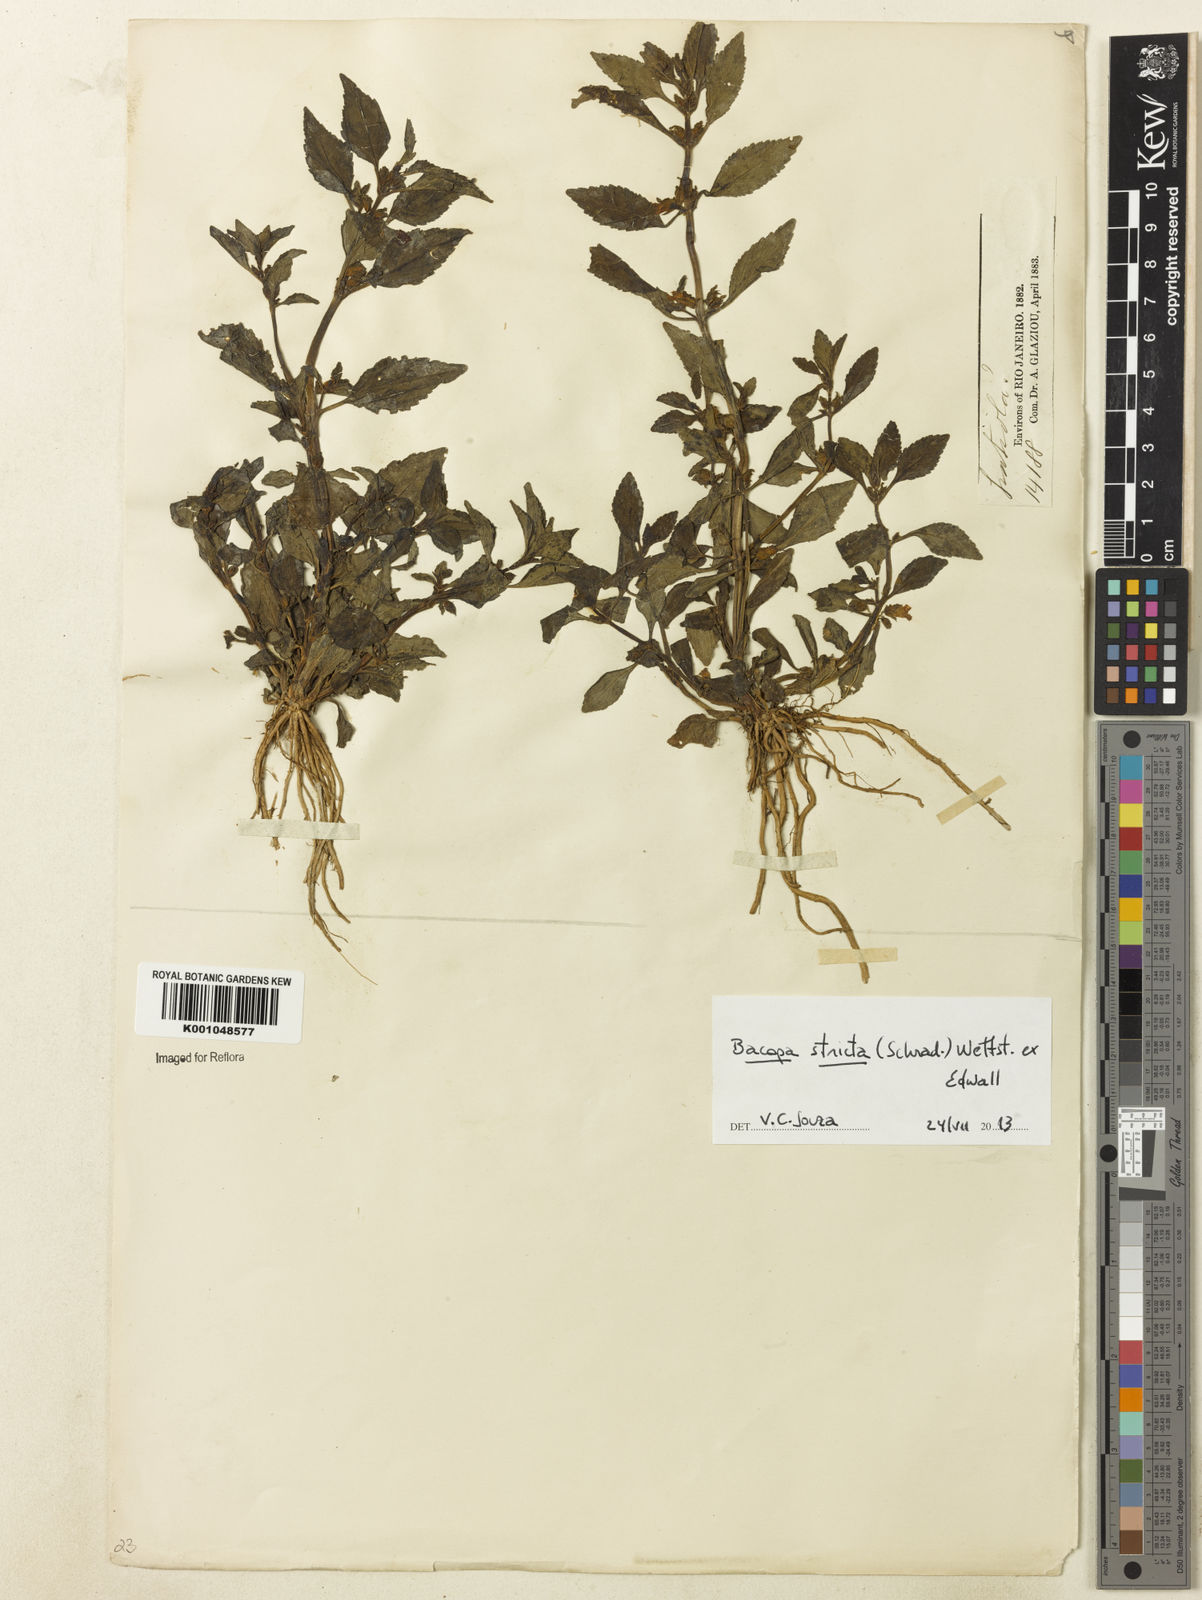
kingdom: Plantae
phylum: Tracheophyta
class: Magnoliopsida
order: Lamiales
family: Plantaginaceae
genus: Bacopa
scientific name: Bacopa stricta
